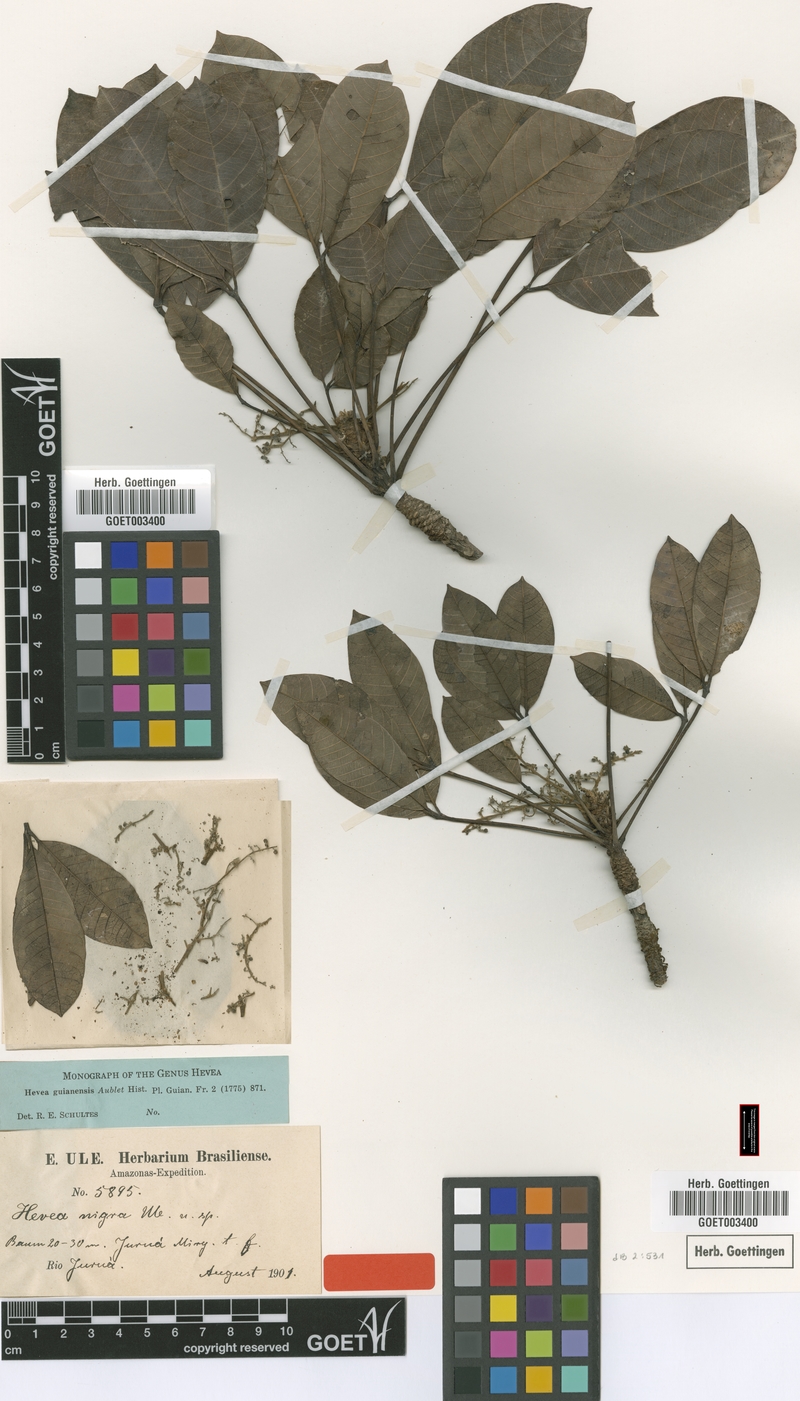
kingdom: Plantae
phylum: Tracheophyta
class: Magnoliopsida
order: Malpighiales
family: Euphorbiaceae
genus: Hevea
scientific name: Hevea guianensis
